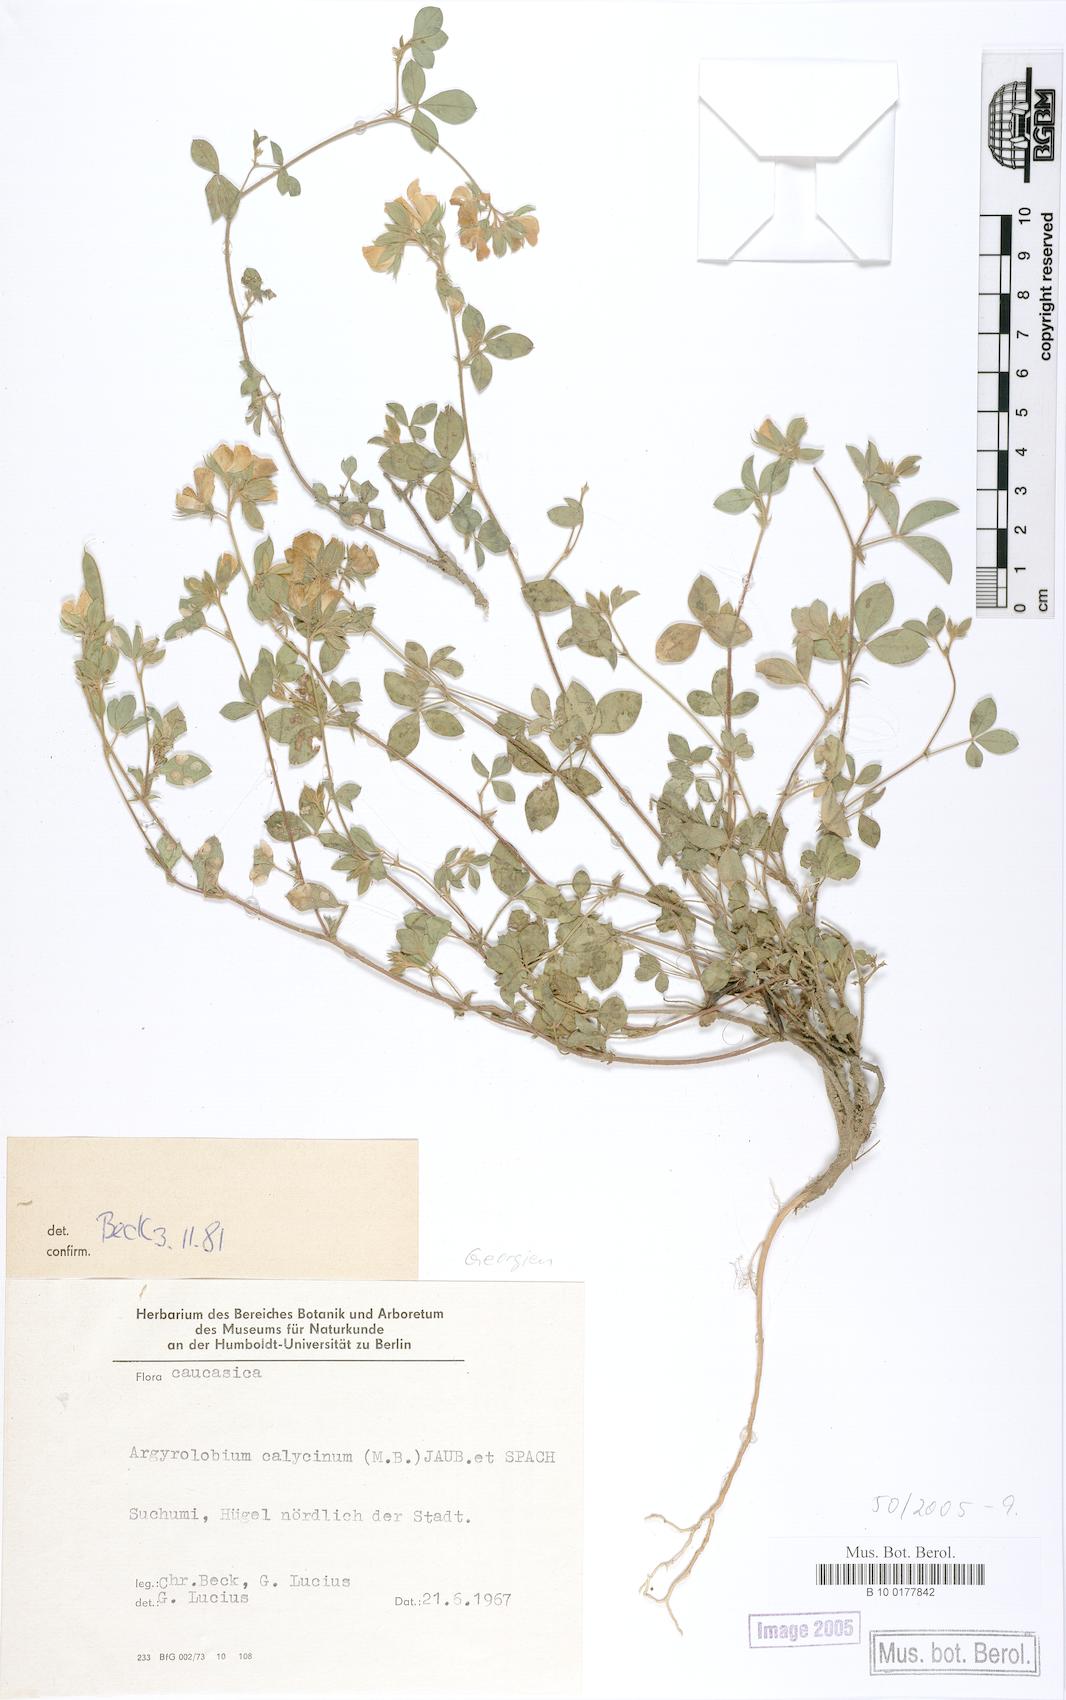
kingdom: Plantae
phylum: Tracheophyta
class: Magnoliopsida
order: Fabales
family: Fabaceae
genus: Argyrolobium
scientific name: Argyrolobium biebersteinii
